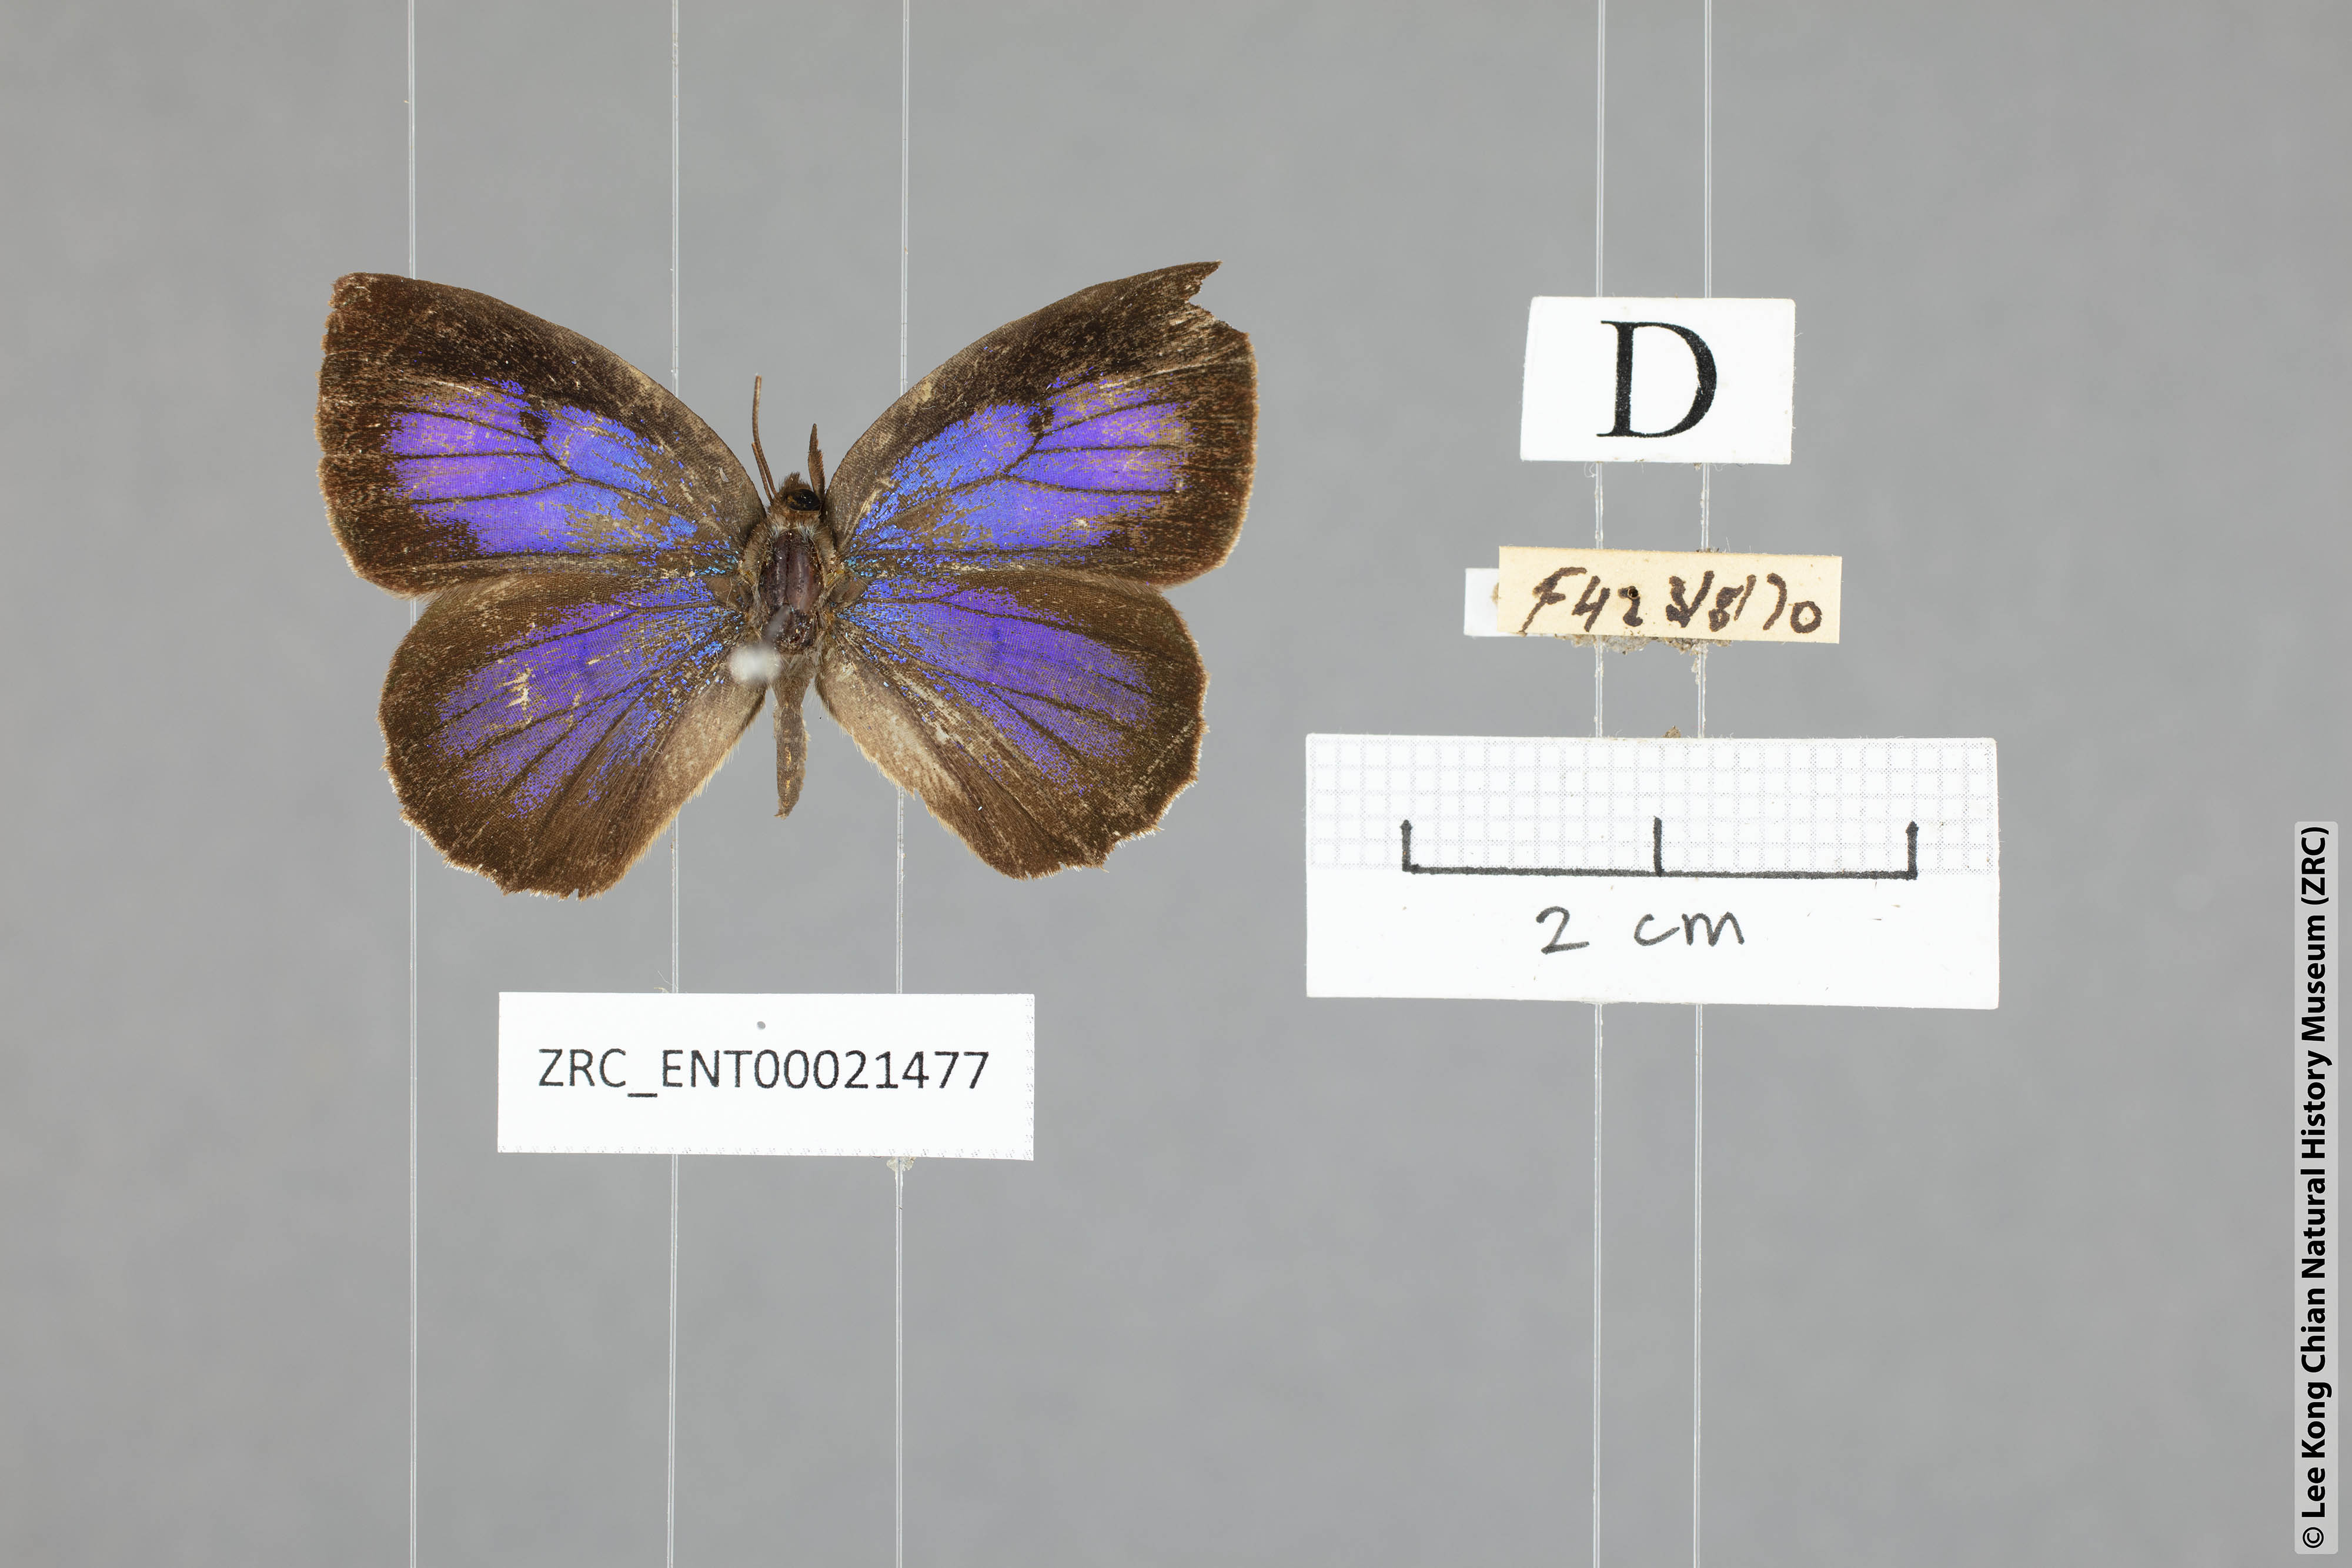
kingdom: Animalia
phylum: Arthropoda
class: Insecta
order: Lepidoptera
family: Lycaenidae
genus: Flos
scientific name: Flos
